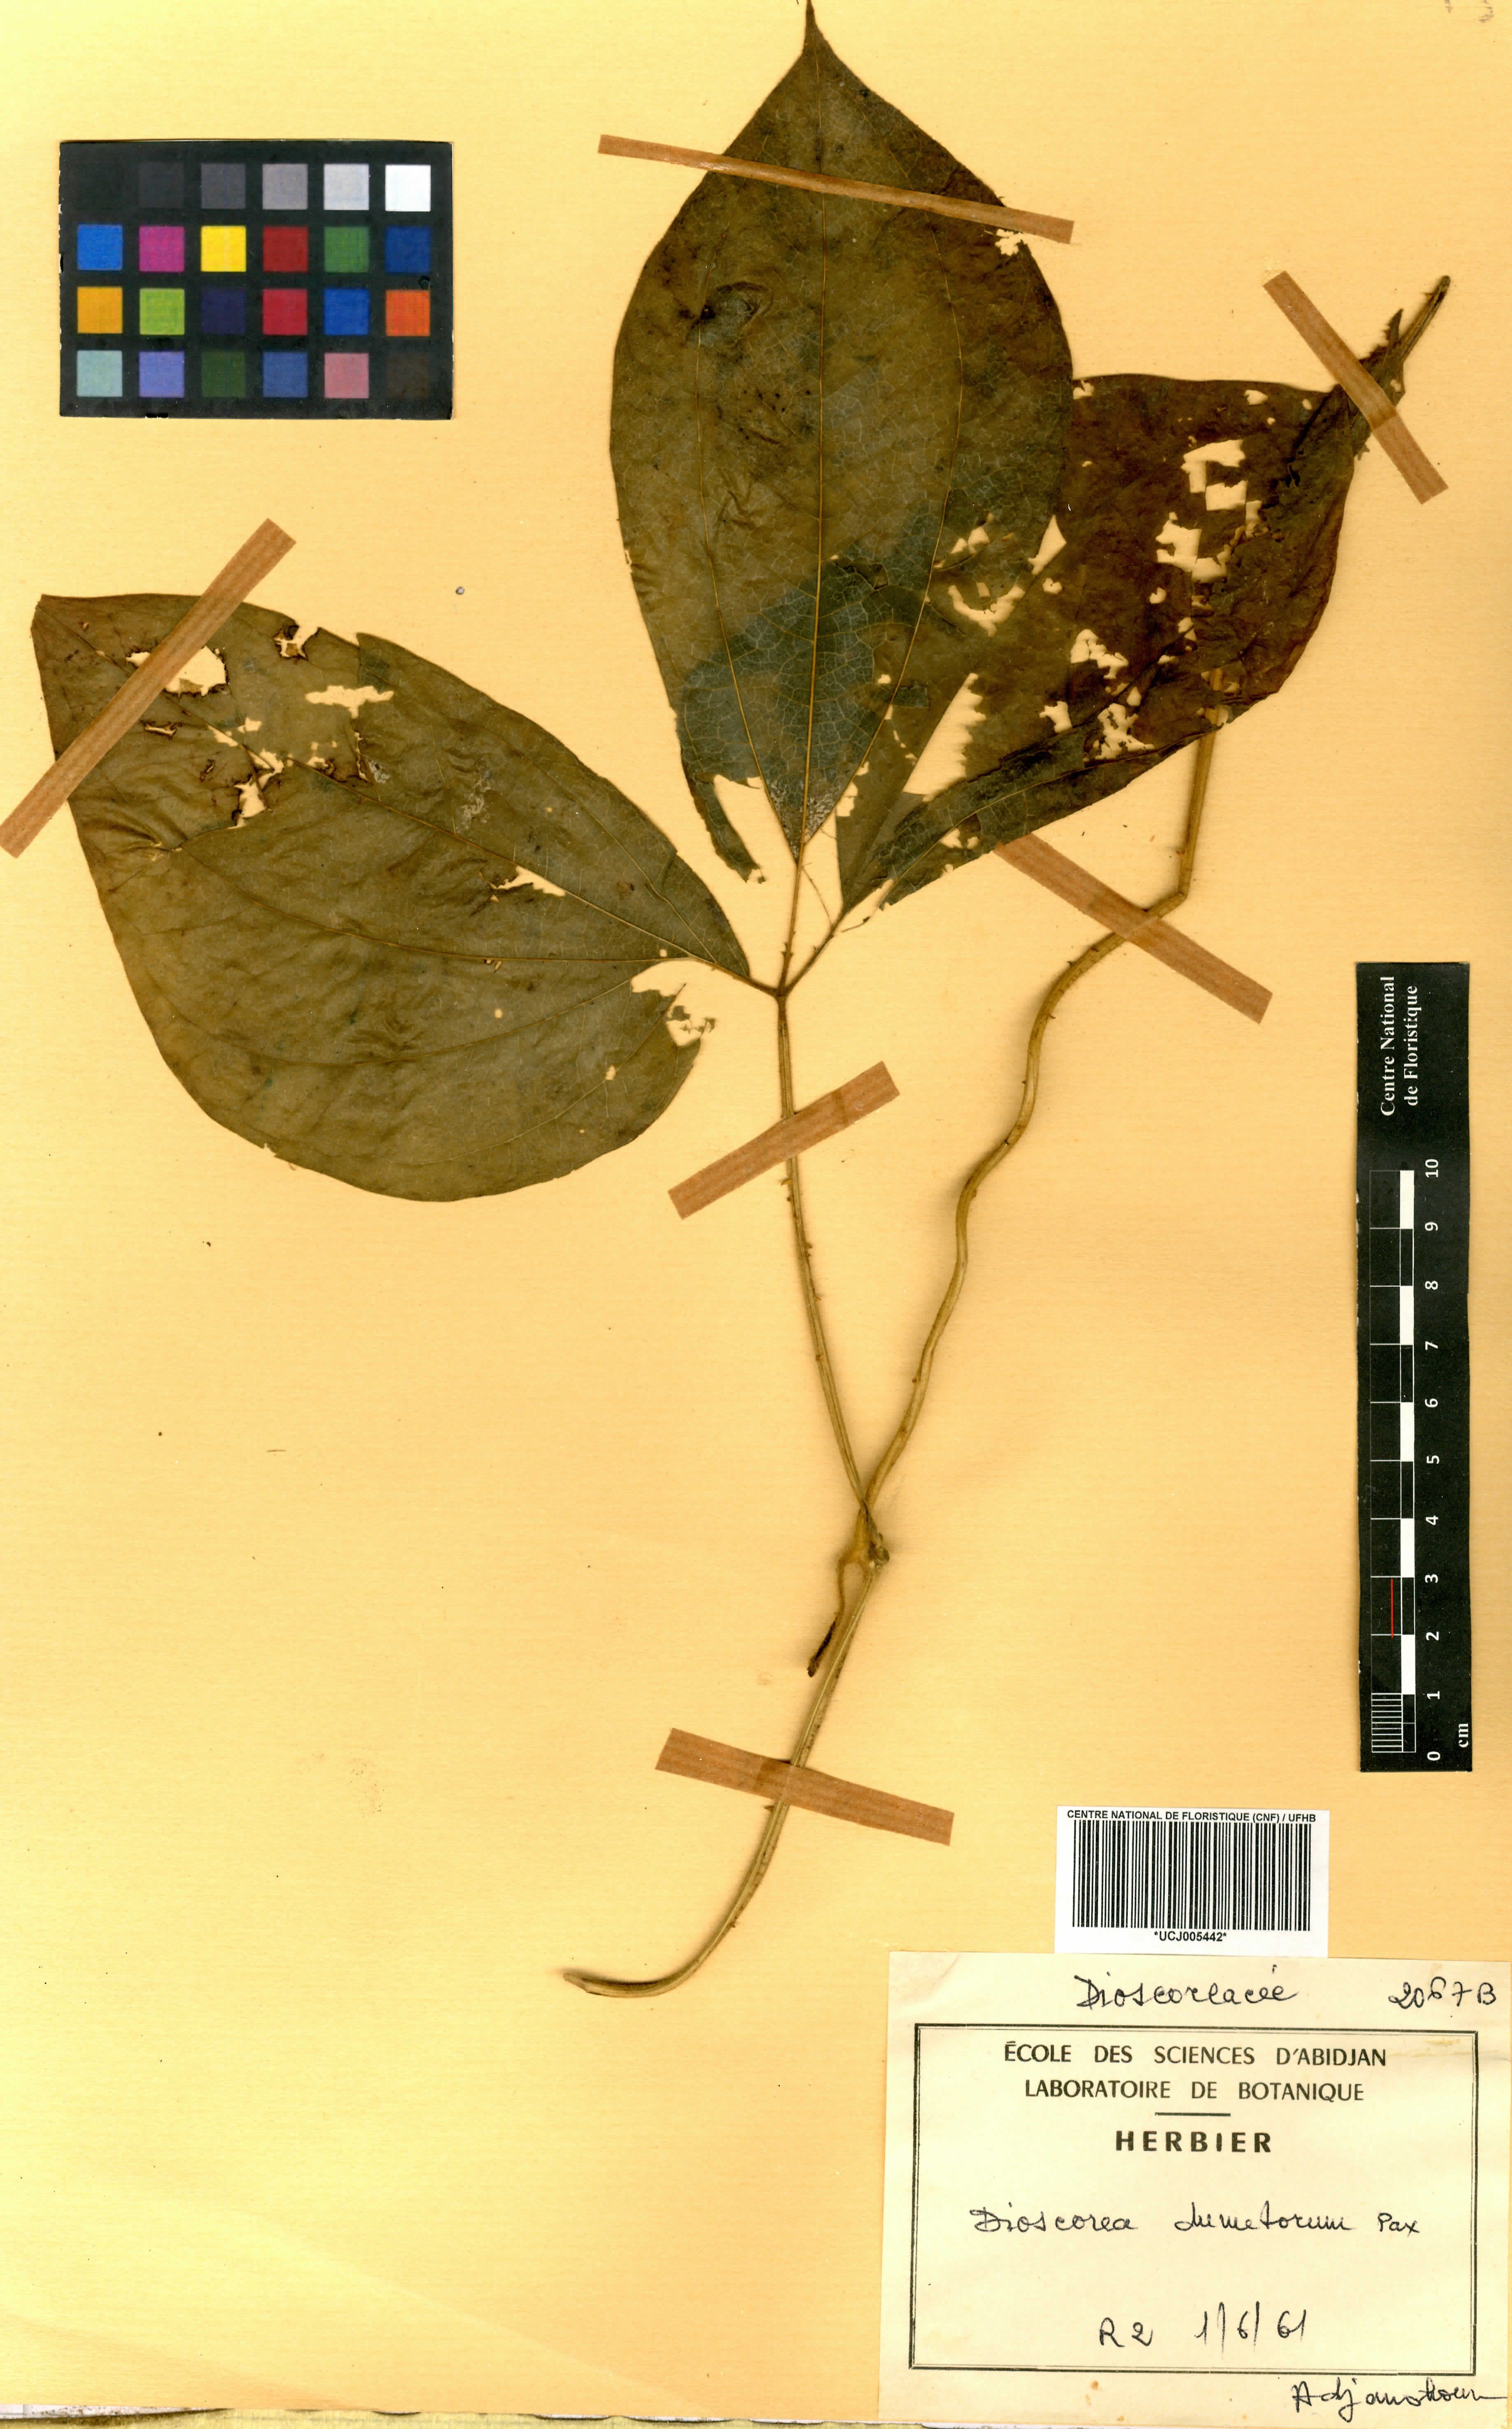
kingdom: Plantae
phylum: Tracheophyta
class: Liliopsida
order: Dioscoreales
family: Dioscoreaceae
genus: Dioscorea
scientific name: Dioscorea dumetorum
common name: African bitter yam
